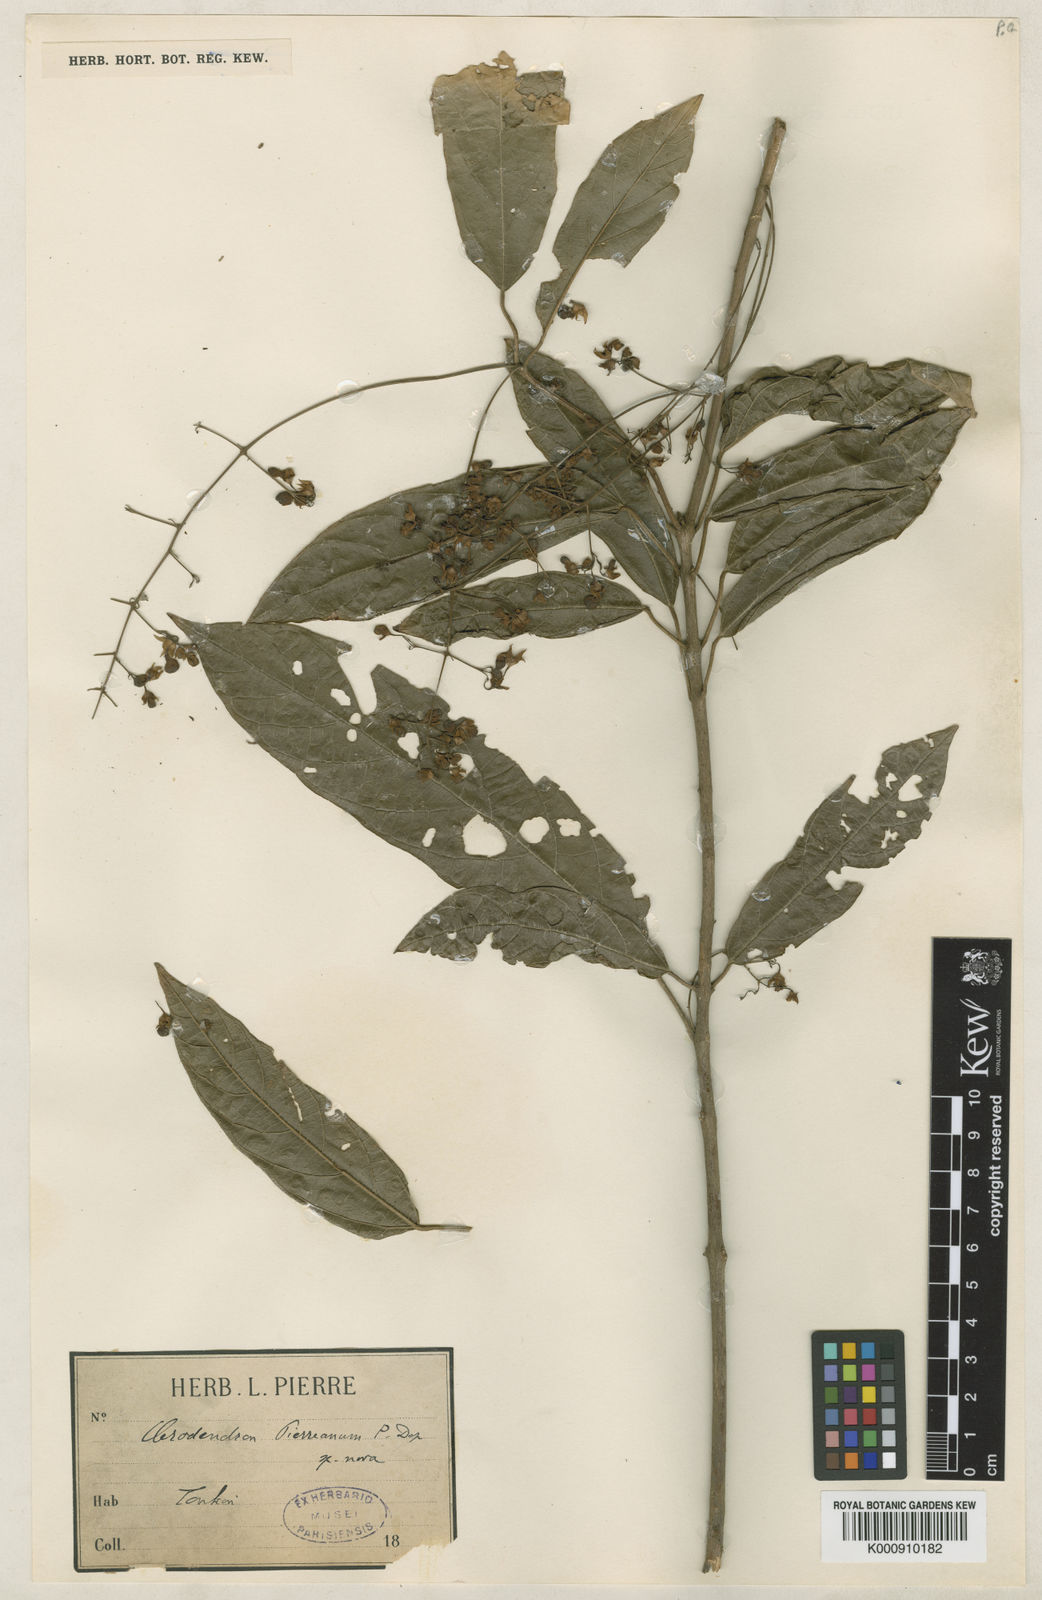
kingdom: Plantae
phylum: Tracheophyta
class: Magnoliopsida
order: Lamiales
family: Lamiaceae
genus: Clerodendrum
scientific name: Clerodendrum pierreanum
